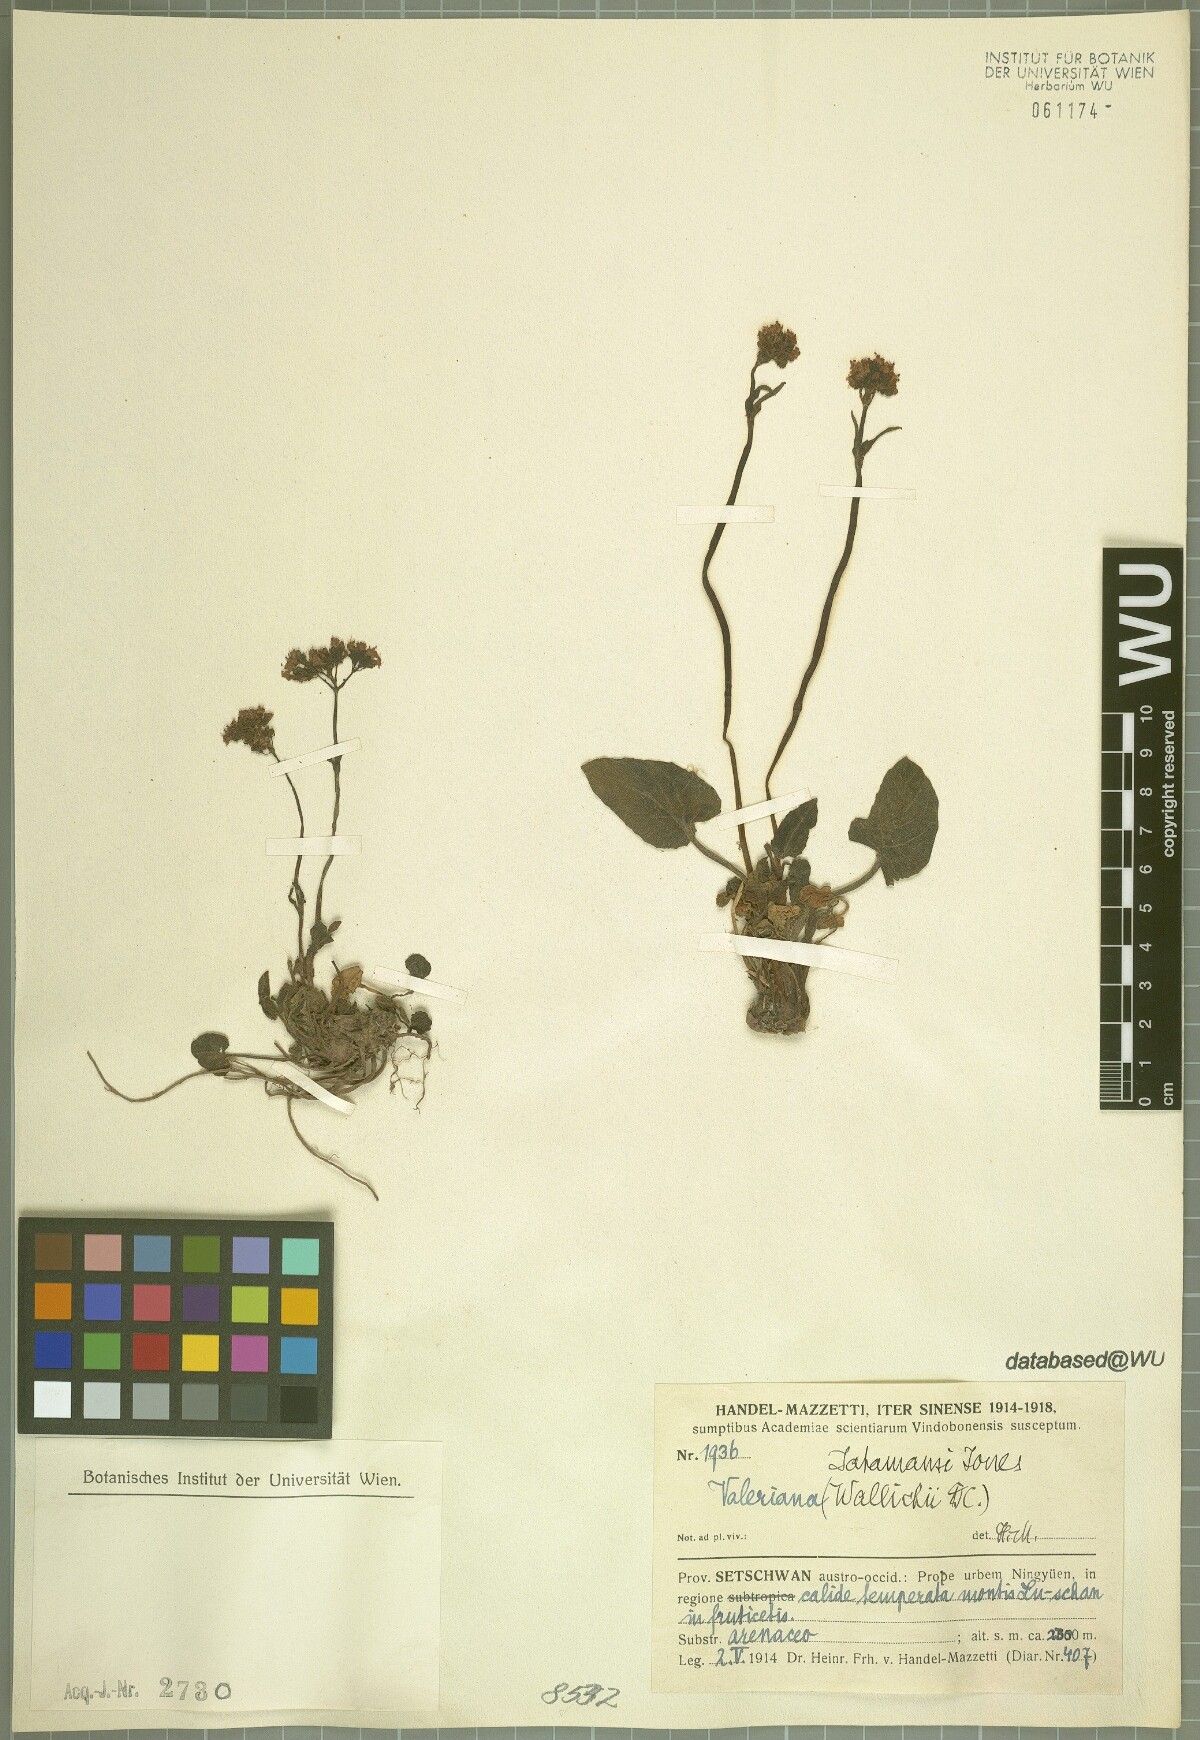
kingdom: Plantae
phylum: Tracheophyta
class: Magnoliopsida
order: Dipsacales
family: Caprifoliaceae
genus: Valeriana
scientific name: Valeriana jatamansi
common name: Indian valerian
